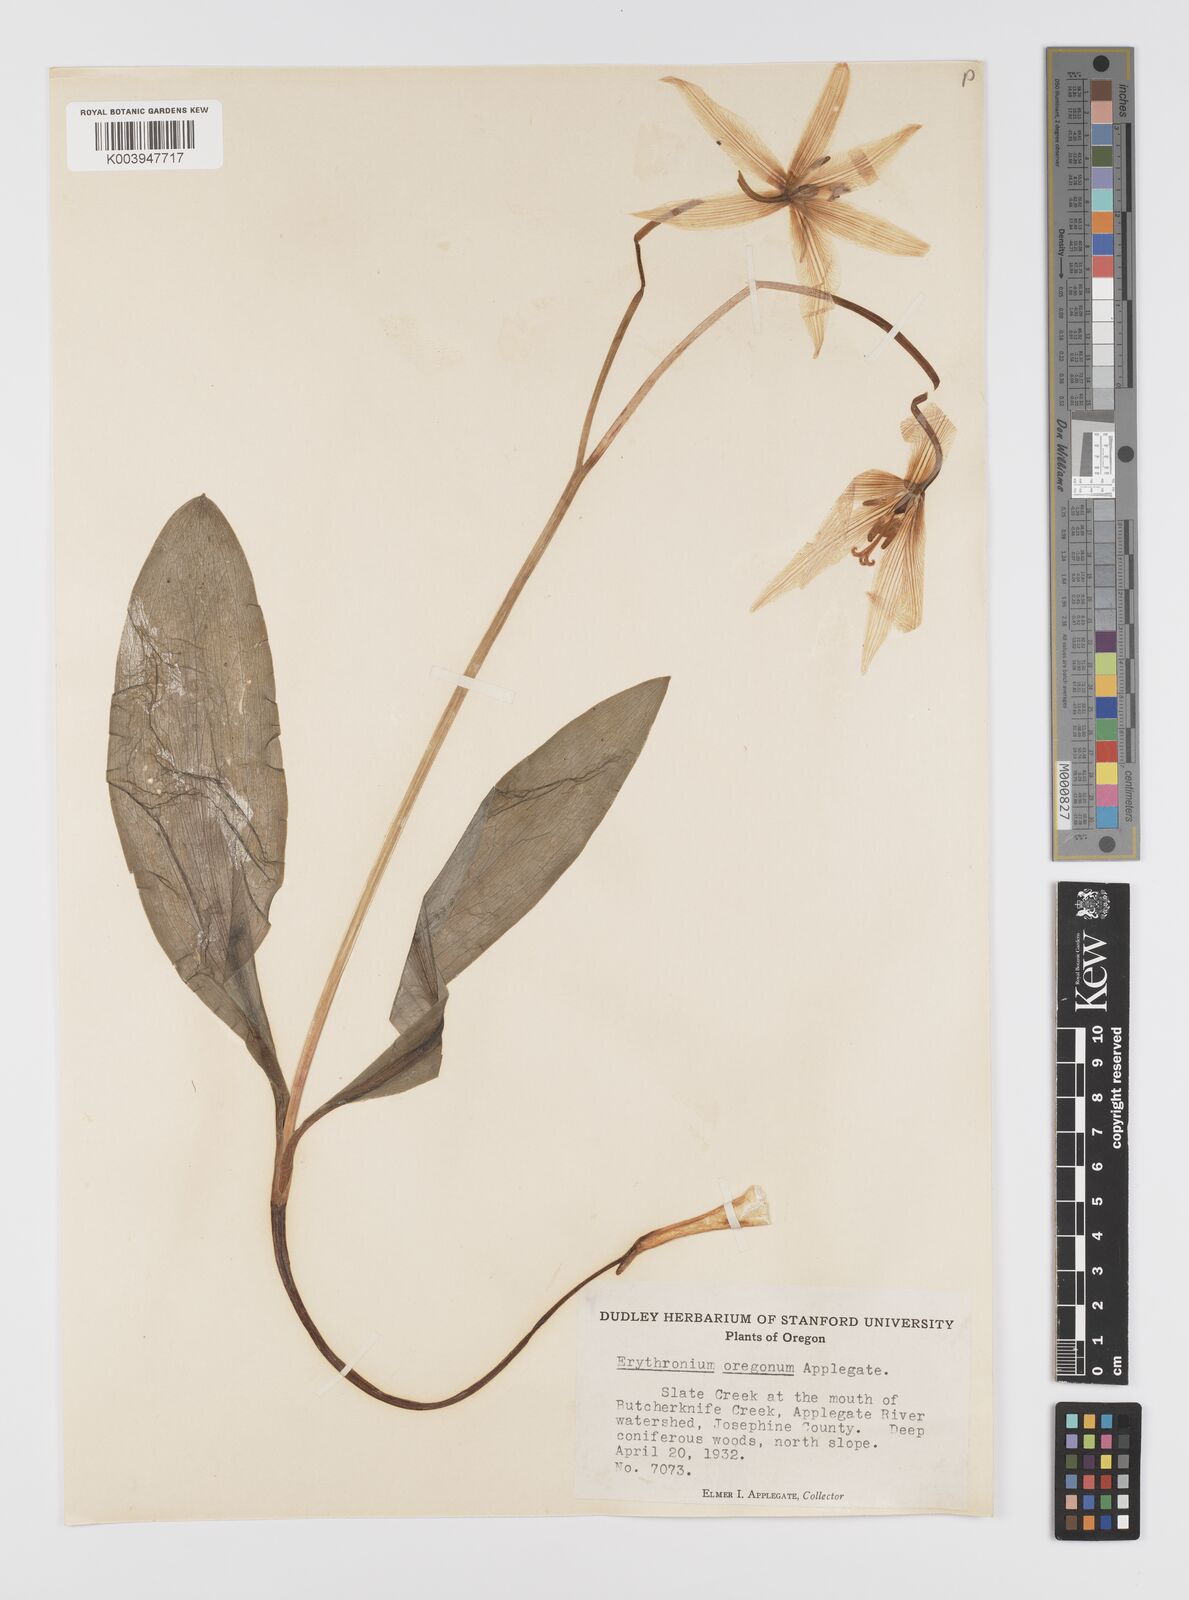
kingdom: Plantae
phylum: Tracheophyta
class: Liliopsida
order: Liliales
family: Liliaceae
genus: Erythronium
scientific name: Erythronium oregonum
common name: Giant adder's-tongue
